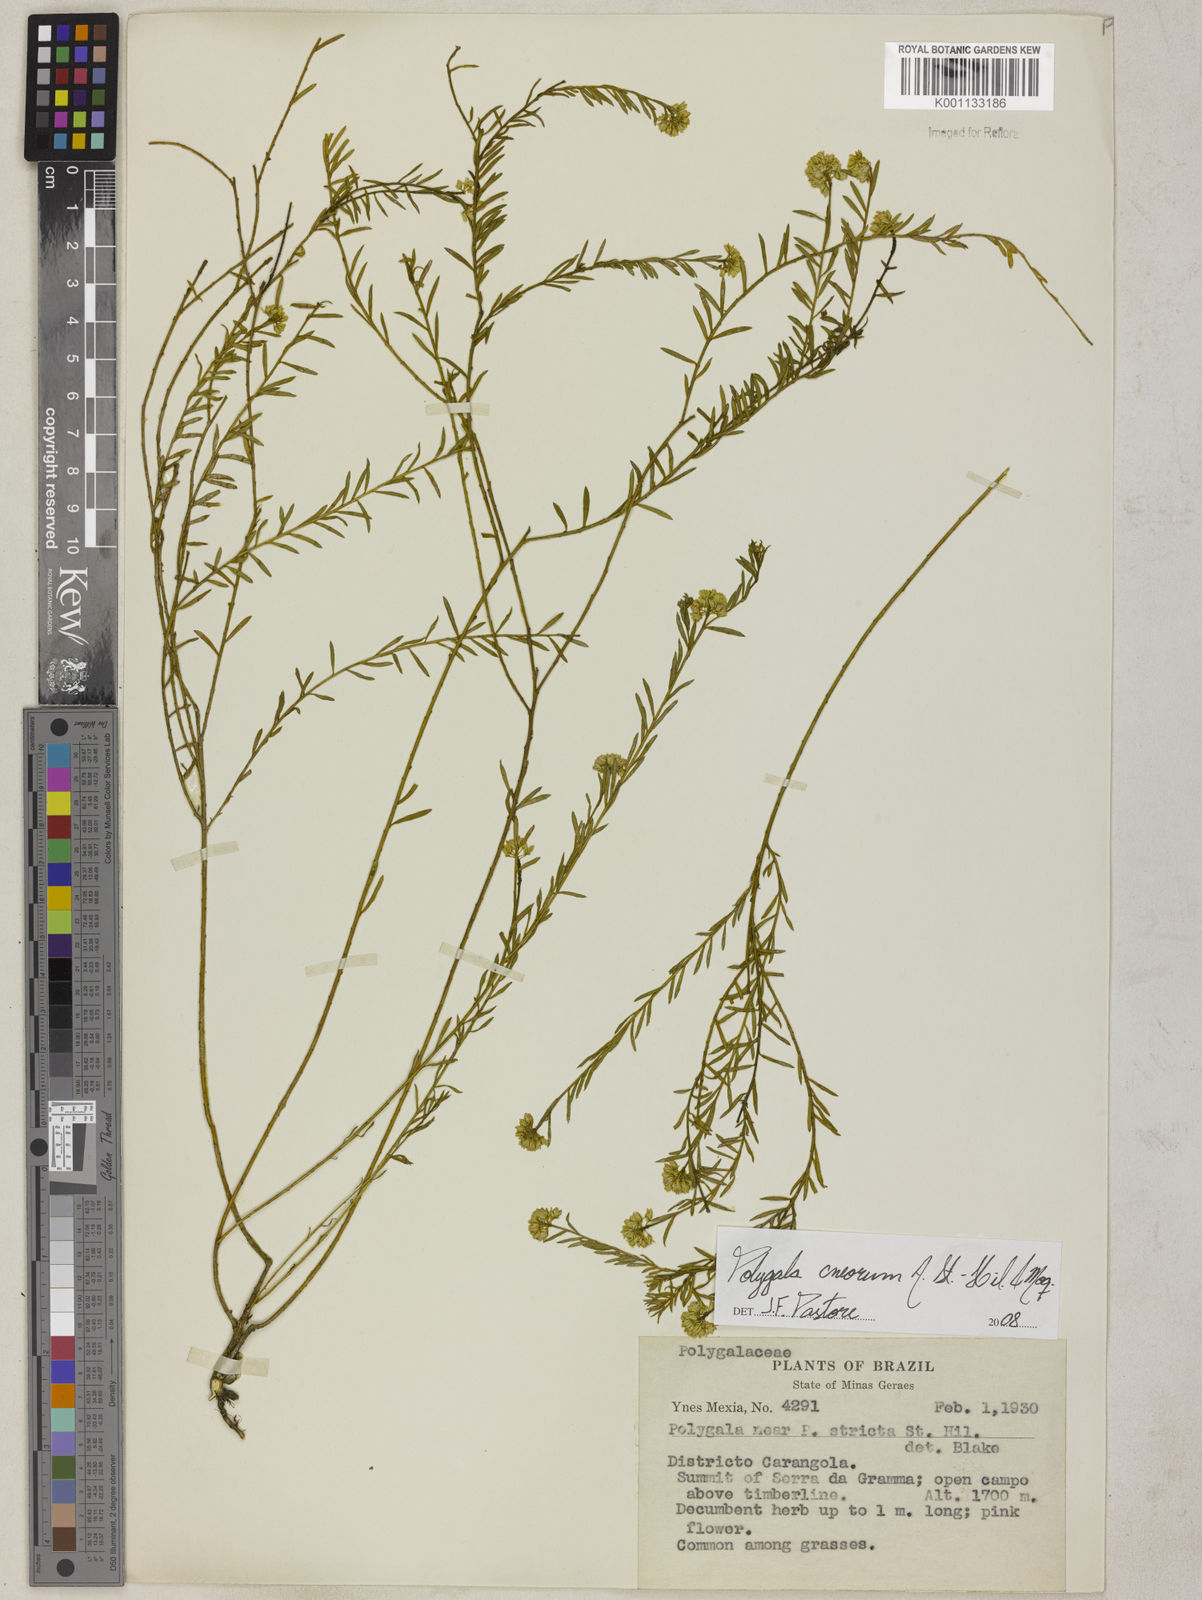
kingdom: Plantae
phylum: Tracheophyta
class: Magnoliopsida
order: Fabales
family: Polygalaceae
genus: Polygala
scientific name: Polygala cneorum
